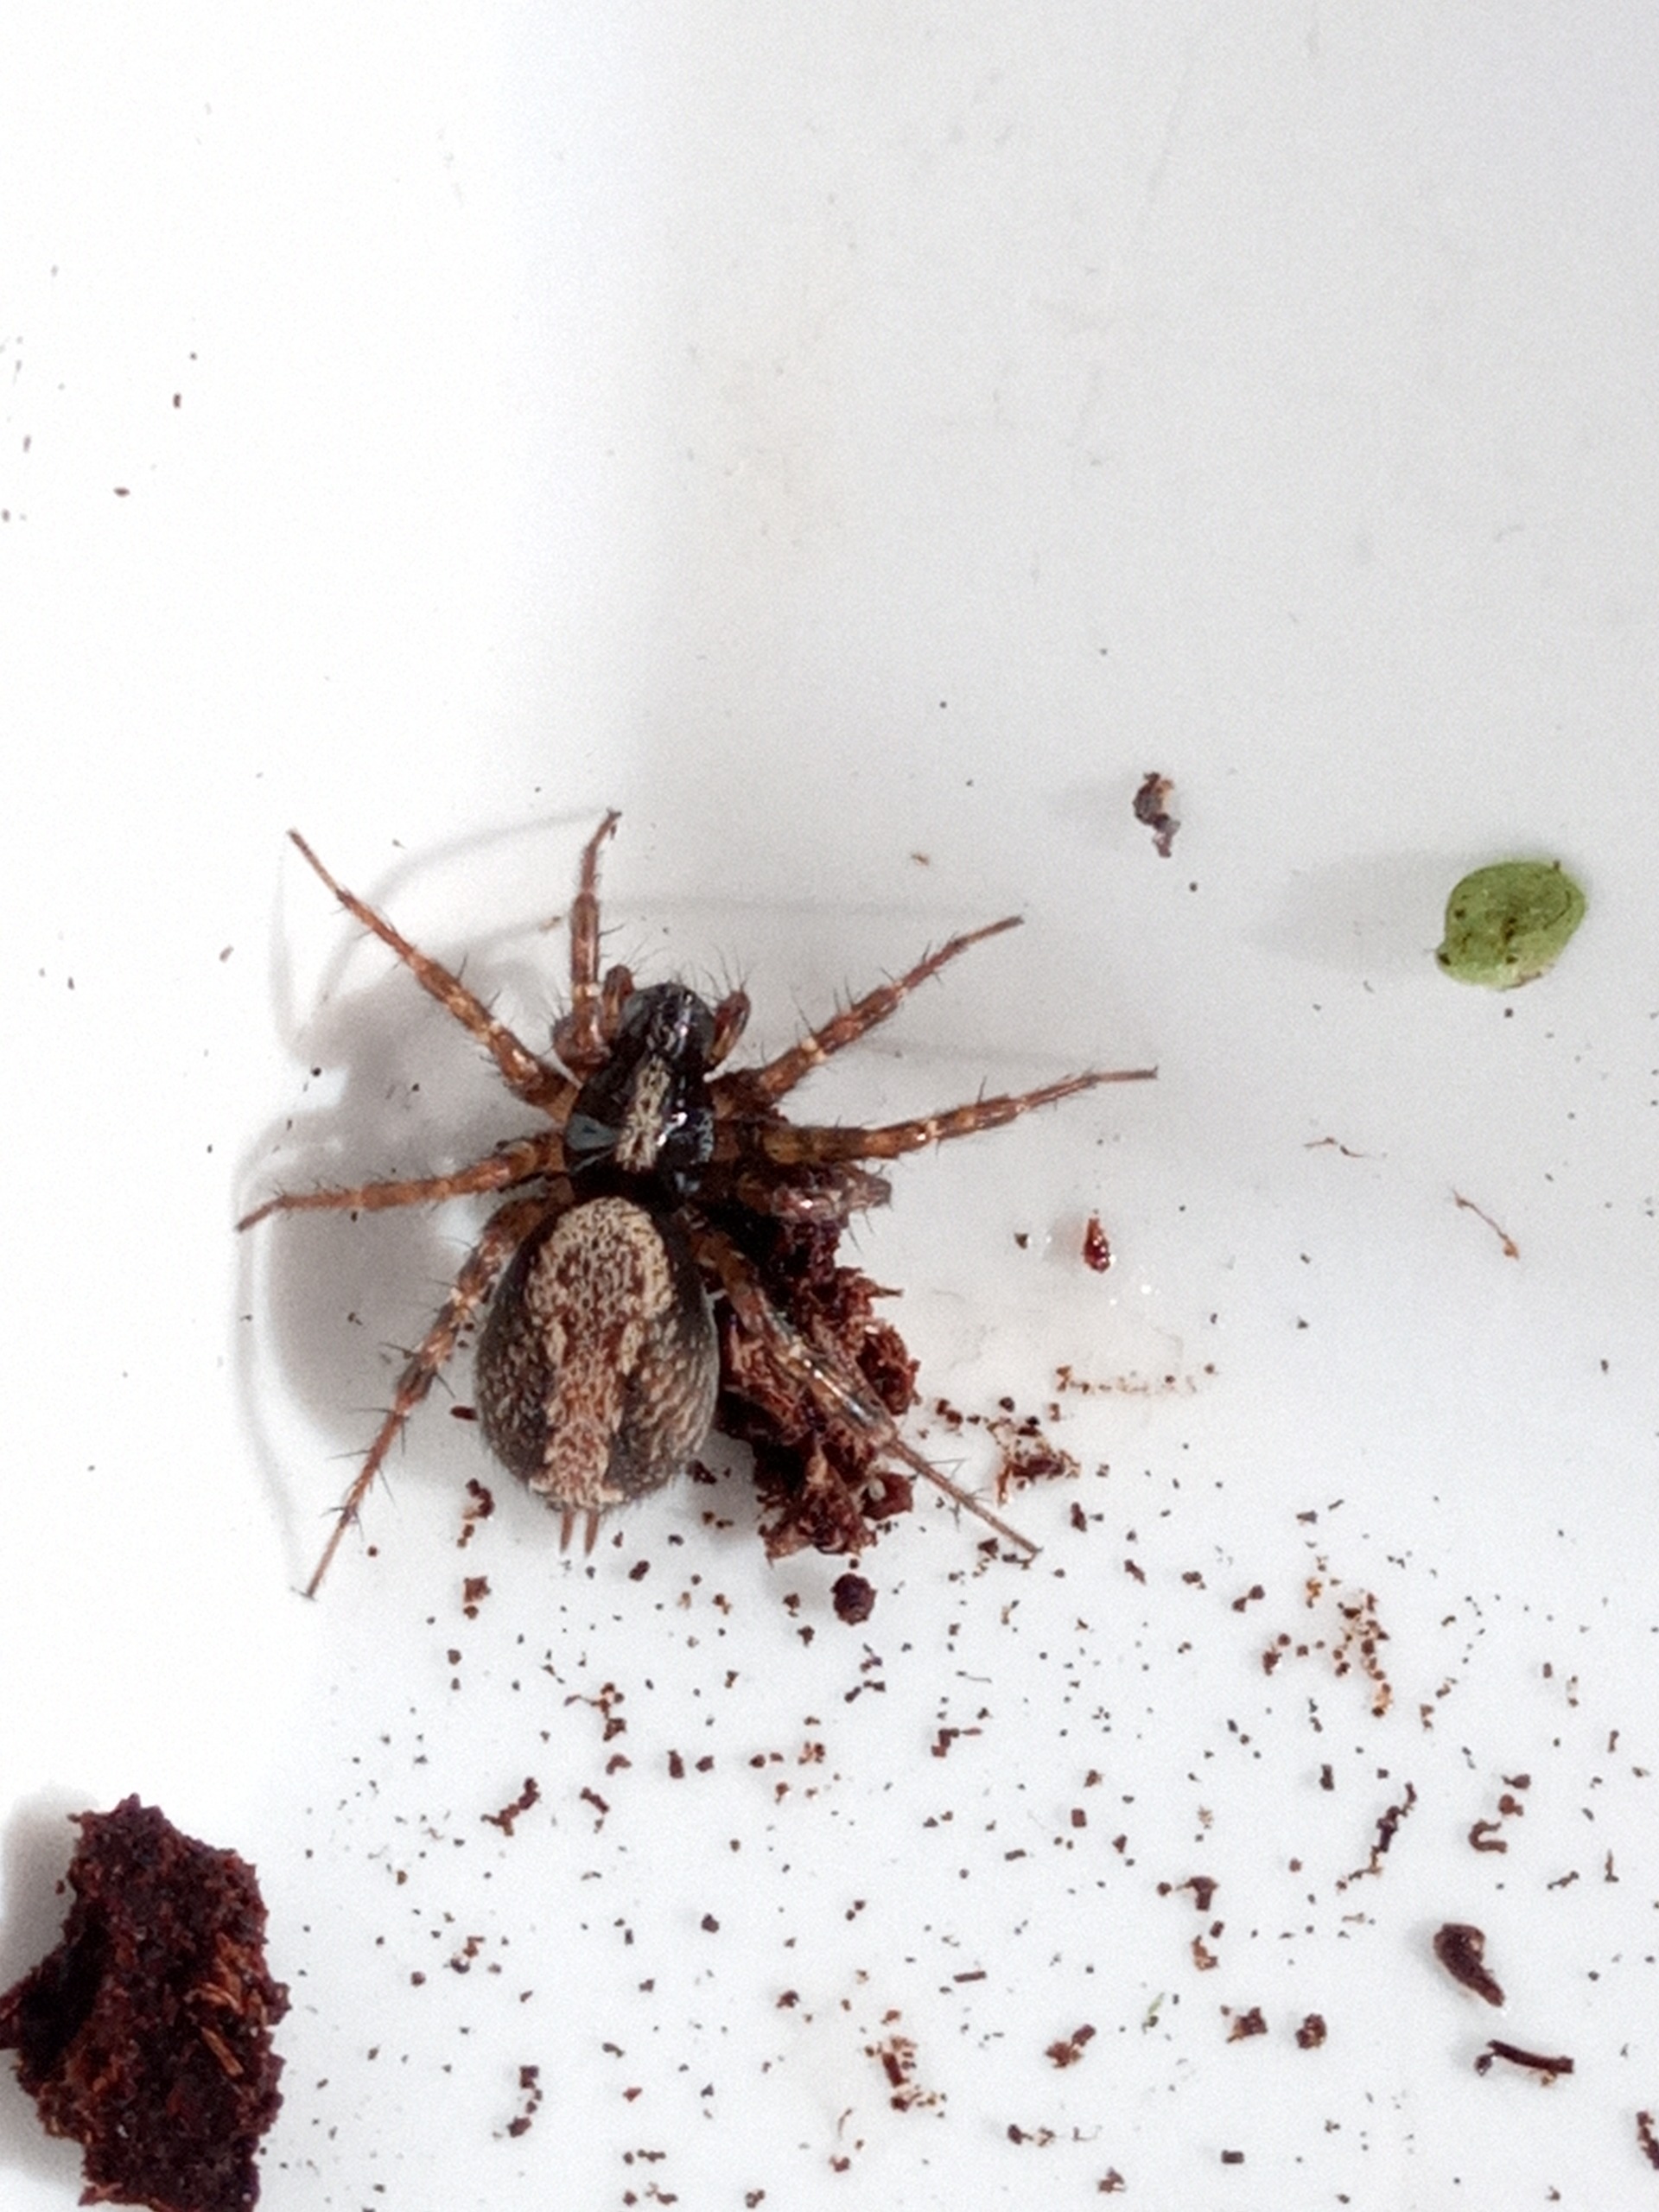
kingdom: Animalia
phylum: Arthropoda
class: Arachnida
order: Araneae
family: Agelenidae
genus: Textrix
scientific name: Textrix denticulata
